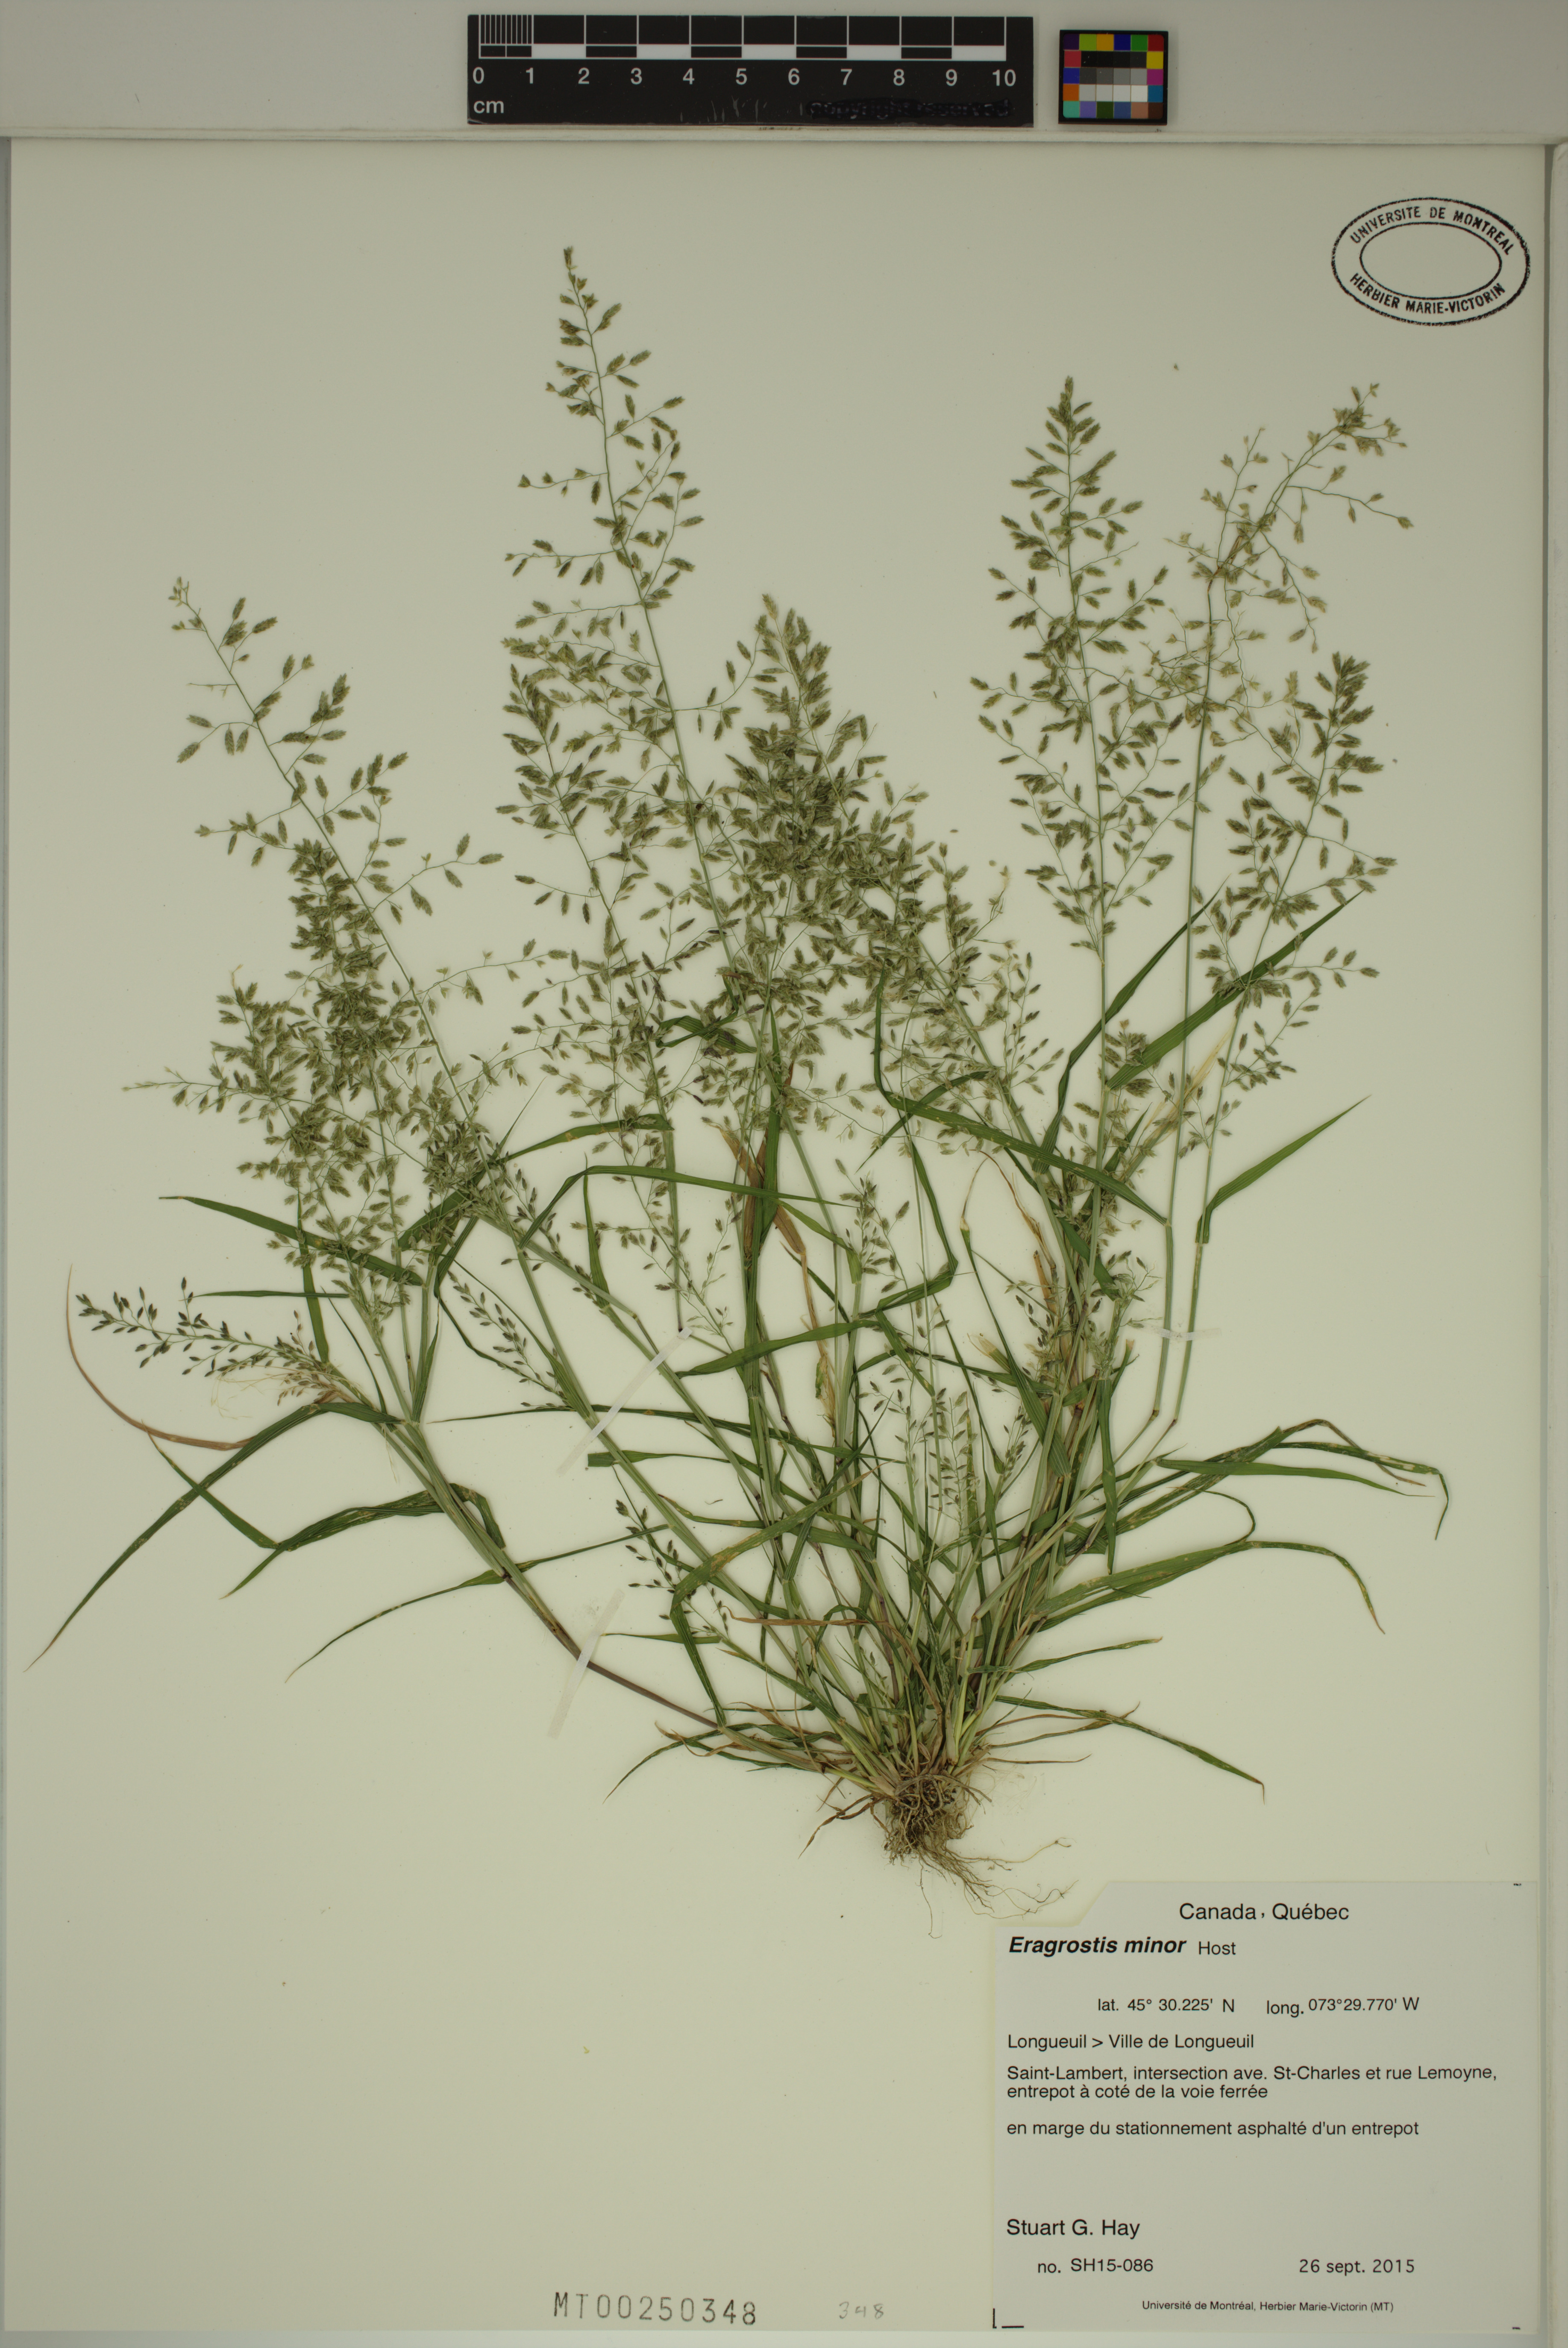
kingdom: Plantae
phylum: Tracheophyta
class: Liliopsida
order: Poales
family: Poaceae
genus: Eragrostis
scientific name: Eragrostis minor
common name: Small love-grass
